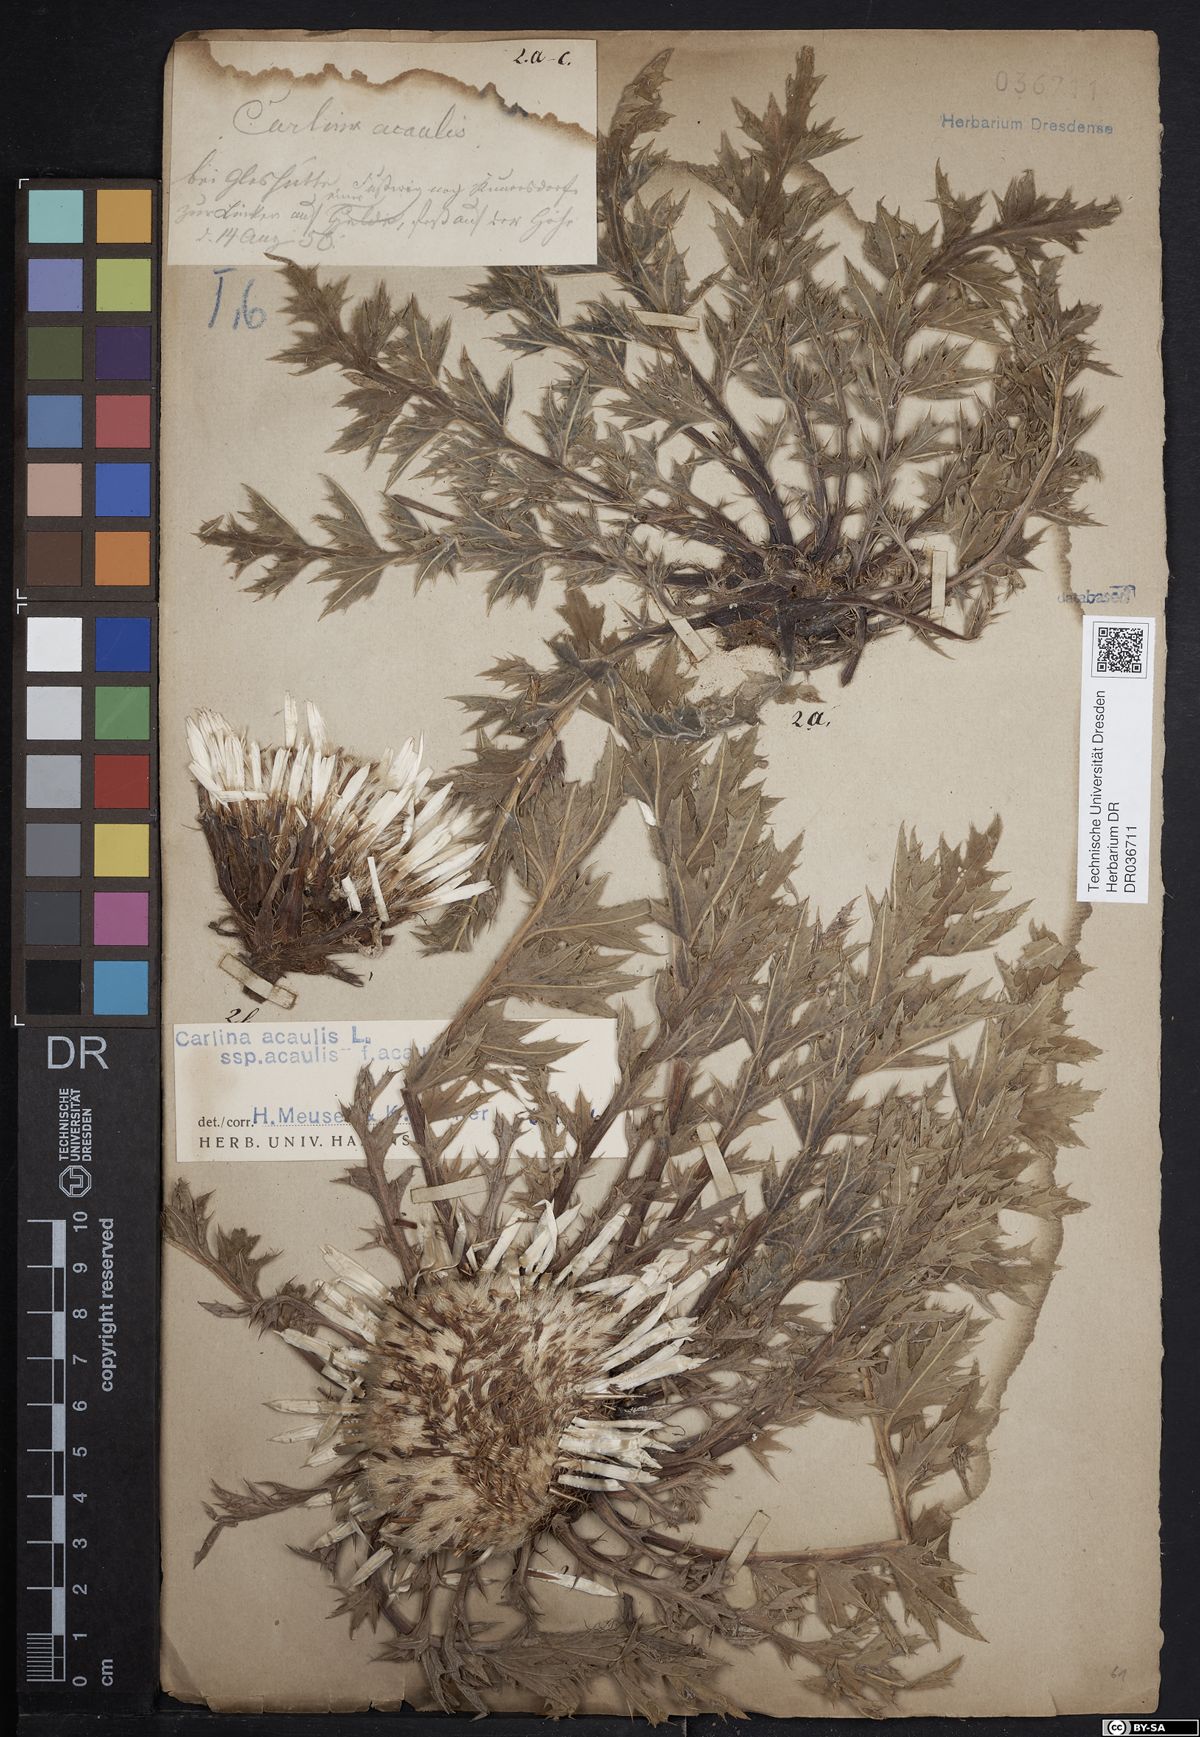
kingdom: Plantae
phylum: Tracheophyta
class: Magnoliopsida
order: Asterales
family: Asteraceae
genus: Carlina
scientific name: Carlina acaulis
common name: Stemless carline thistle
